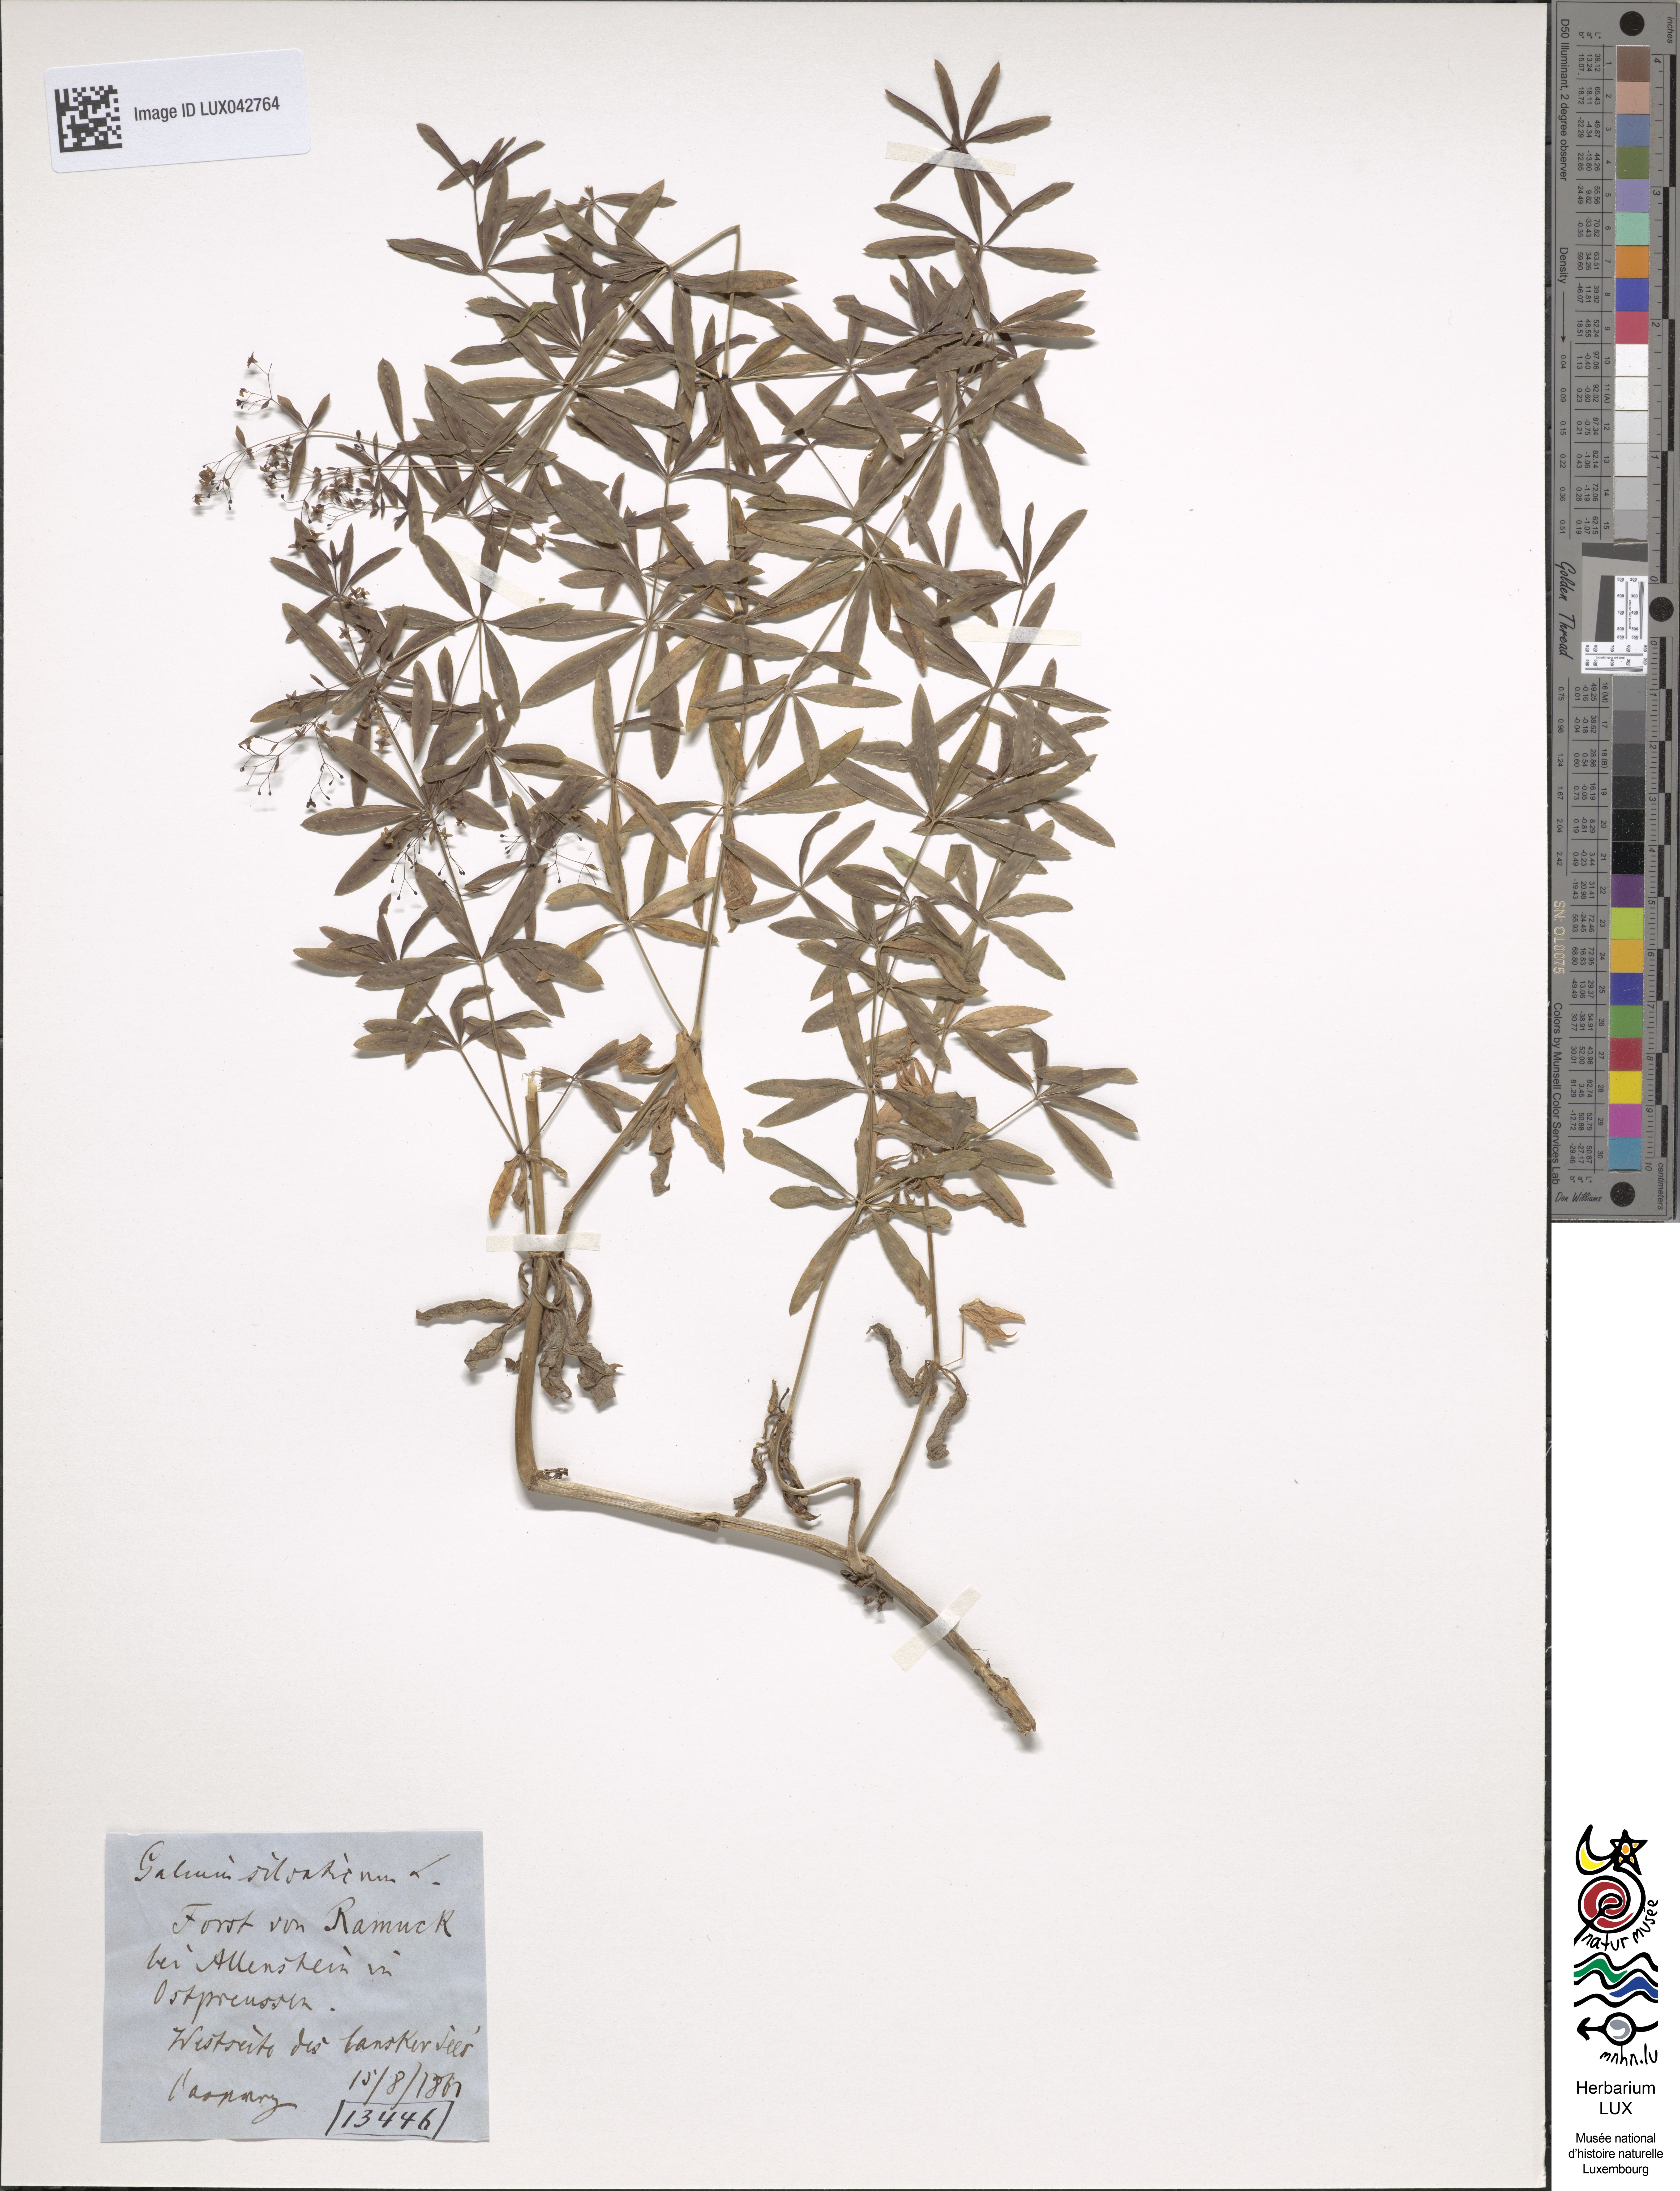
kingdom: Plantae
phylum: Tracheophyta
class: Magnoliopsida
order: Gentianales
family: Rubiaceae
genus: Galium
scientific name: Galium sylvaticum
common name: Wood bedstraw
